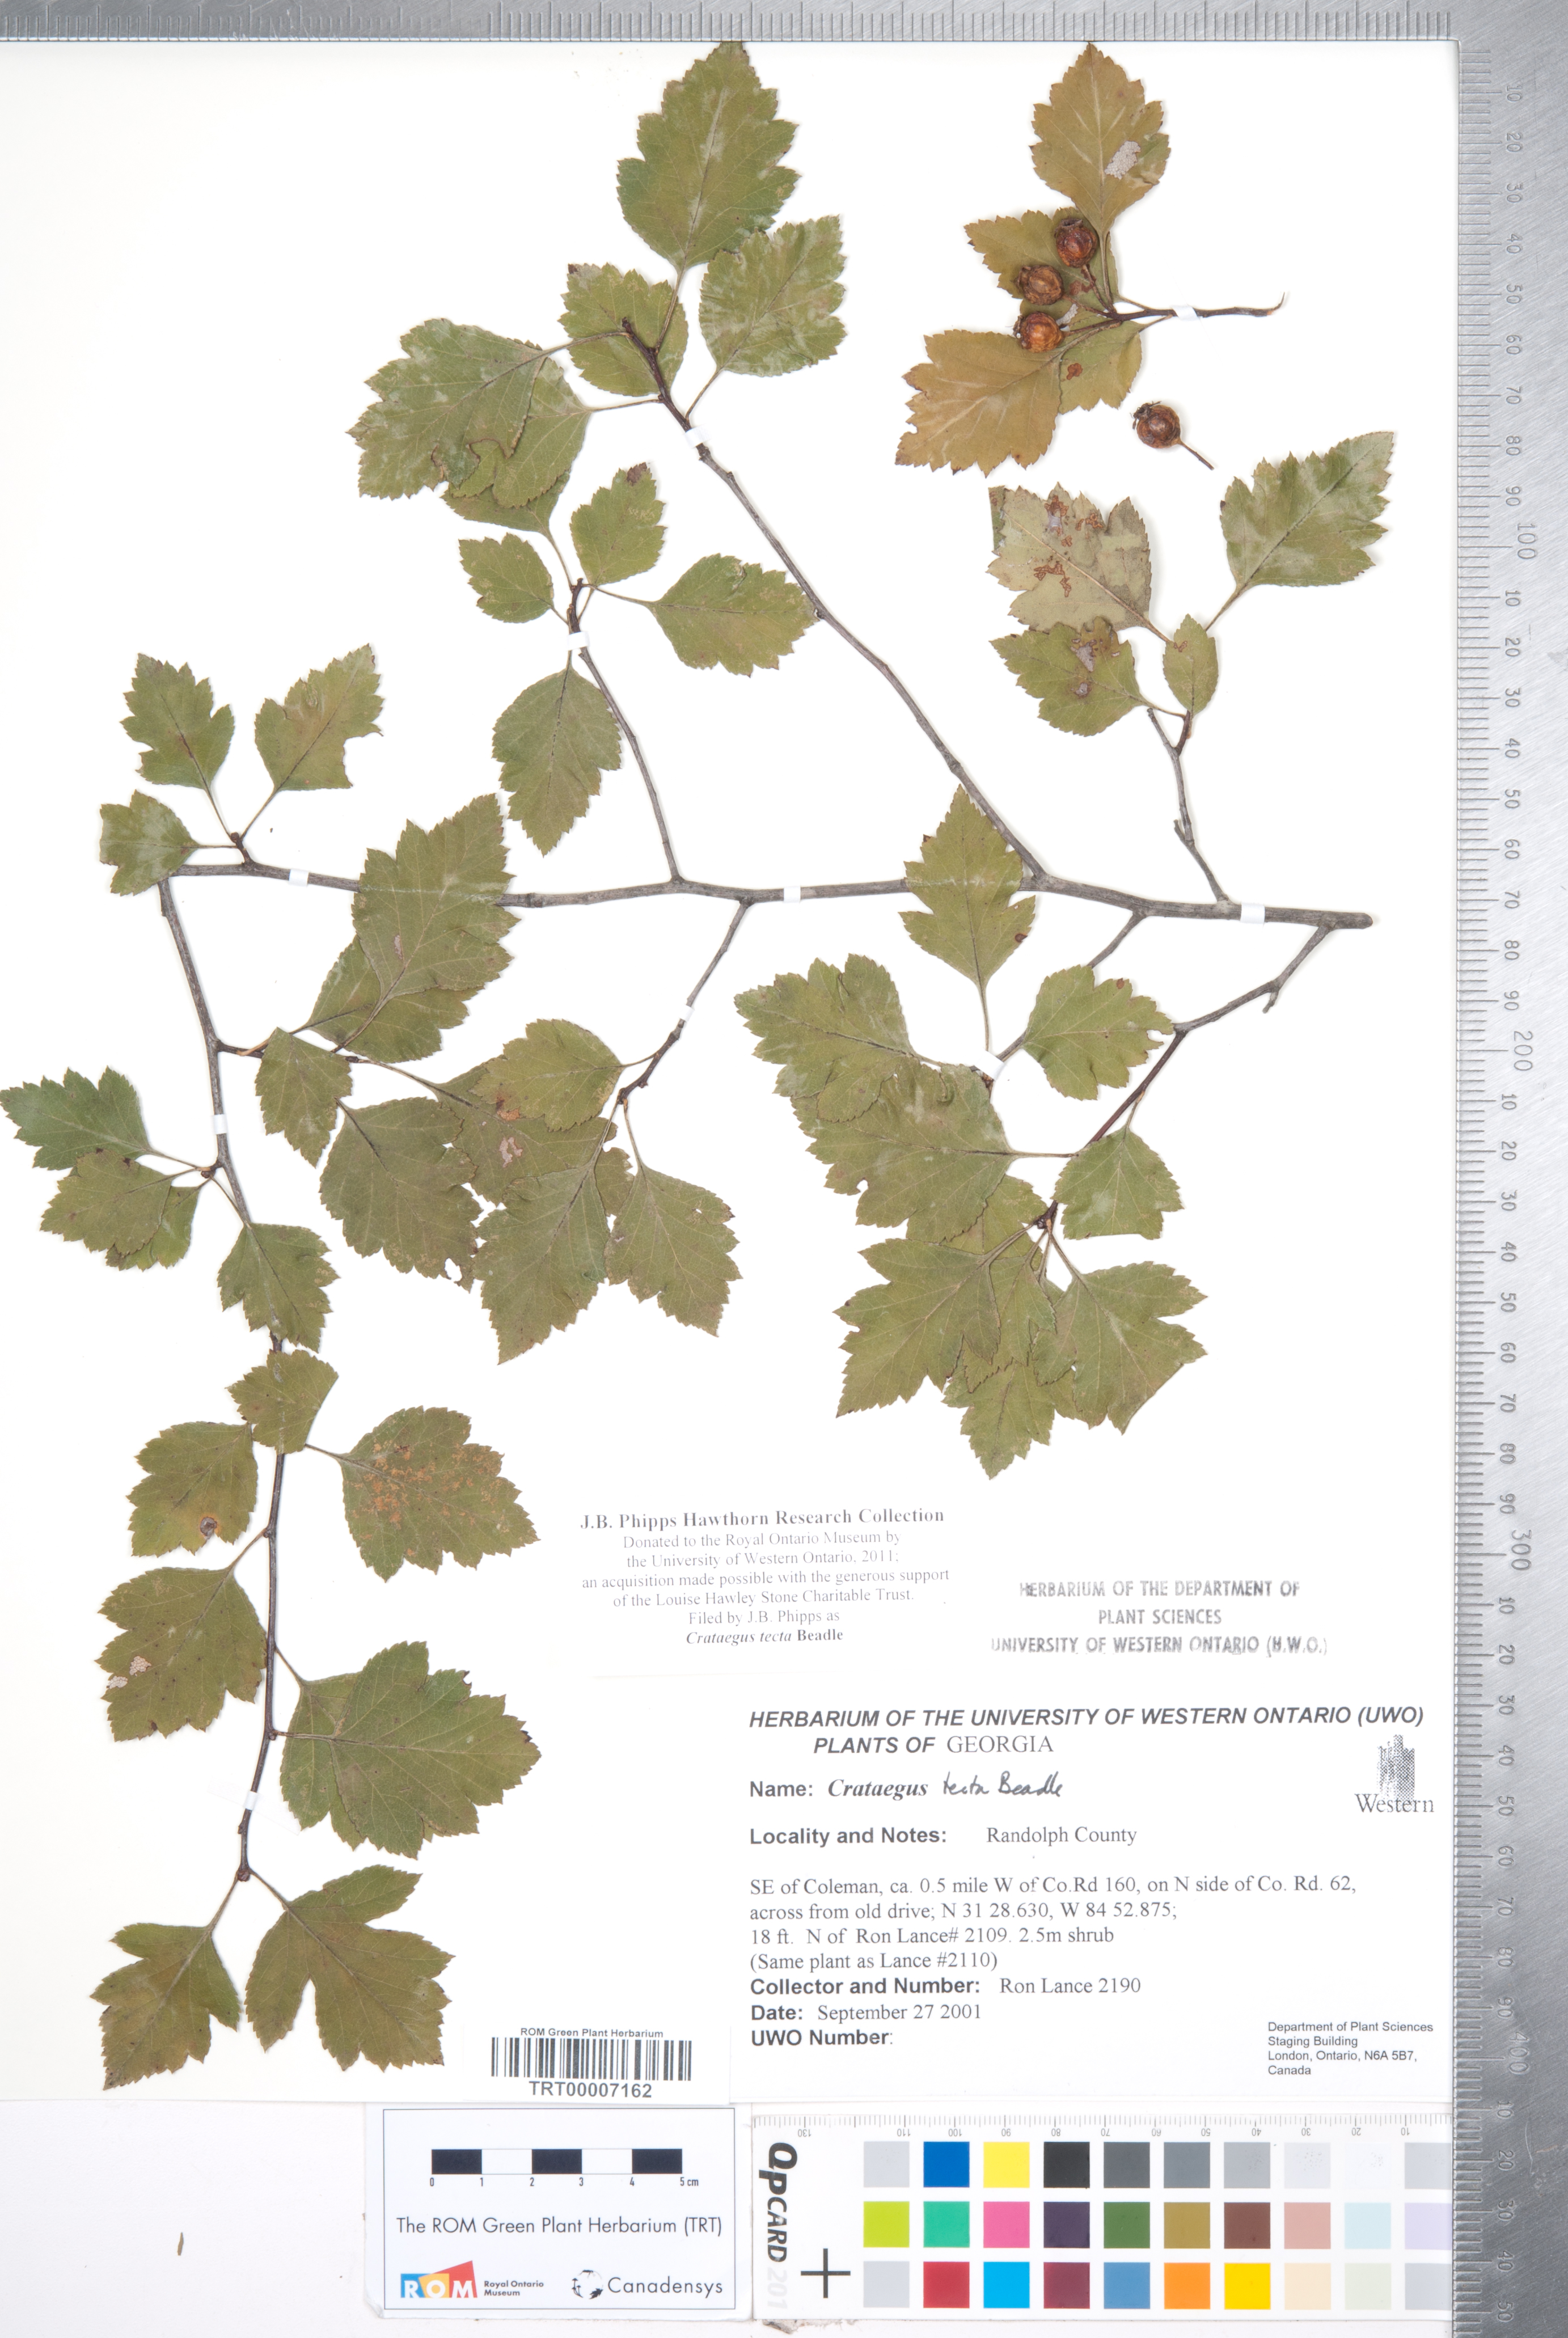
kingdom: Plantae
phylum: Tracheophyta
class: Magnoliopsida
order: Rosales
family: Rosaceae
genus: Crataegus
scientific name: Crataegus pulcherrima
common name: Beautiful hawthorn
